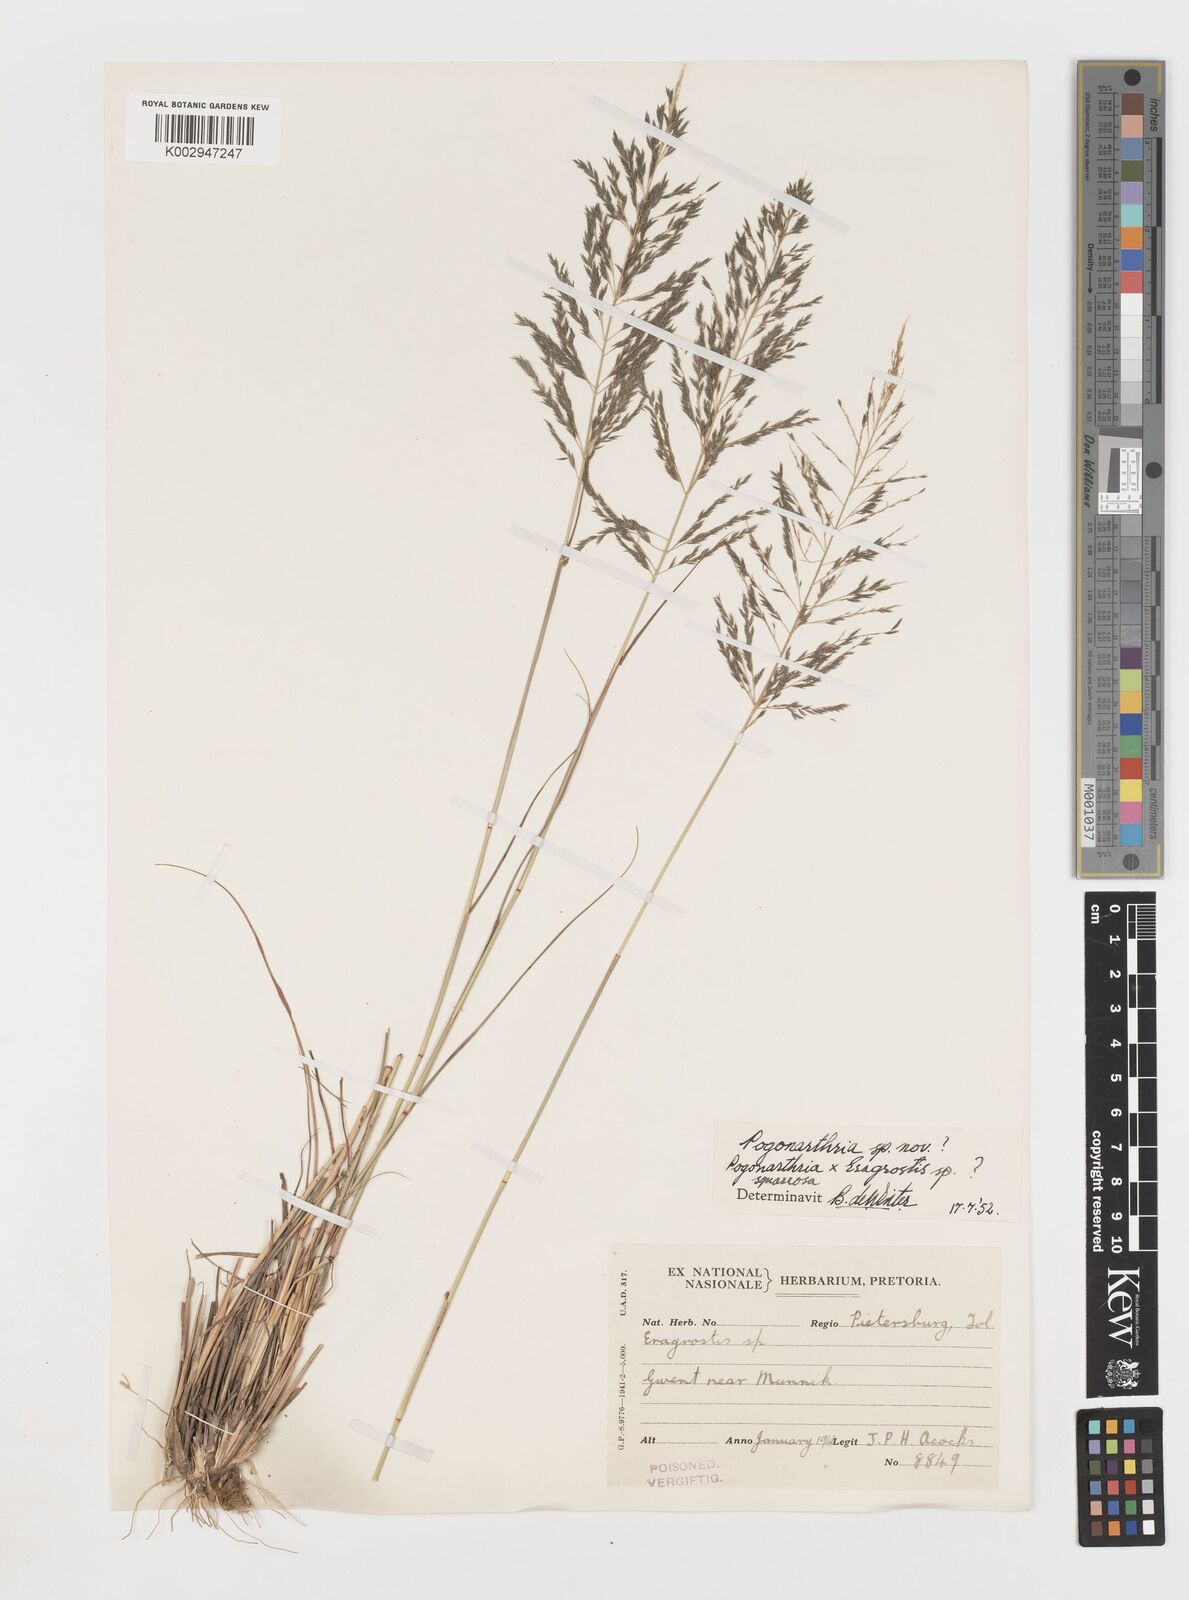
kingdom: Plantae
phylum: Tracheophyta
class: Liliopsida
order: Poales
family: Poaceae
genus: Eragrostis
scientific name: Eragrostis
